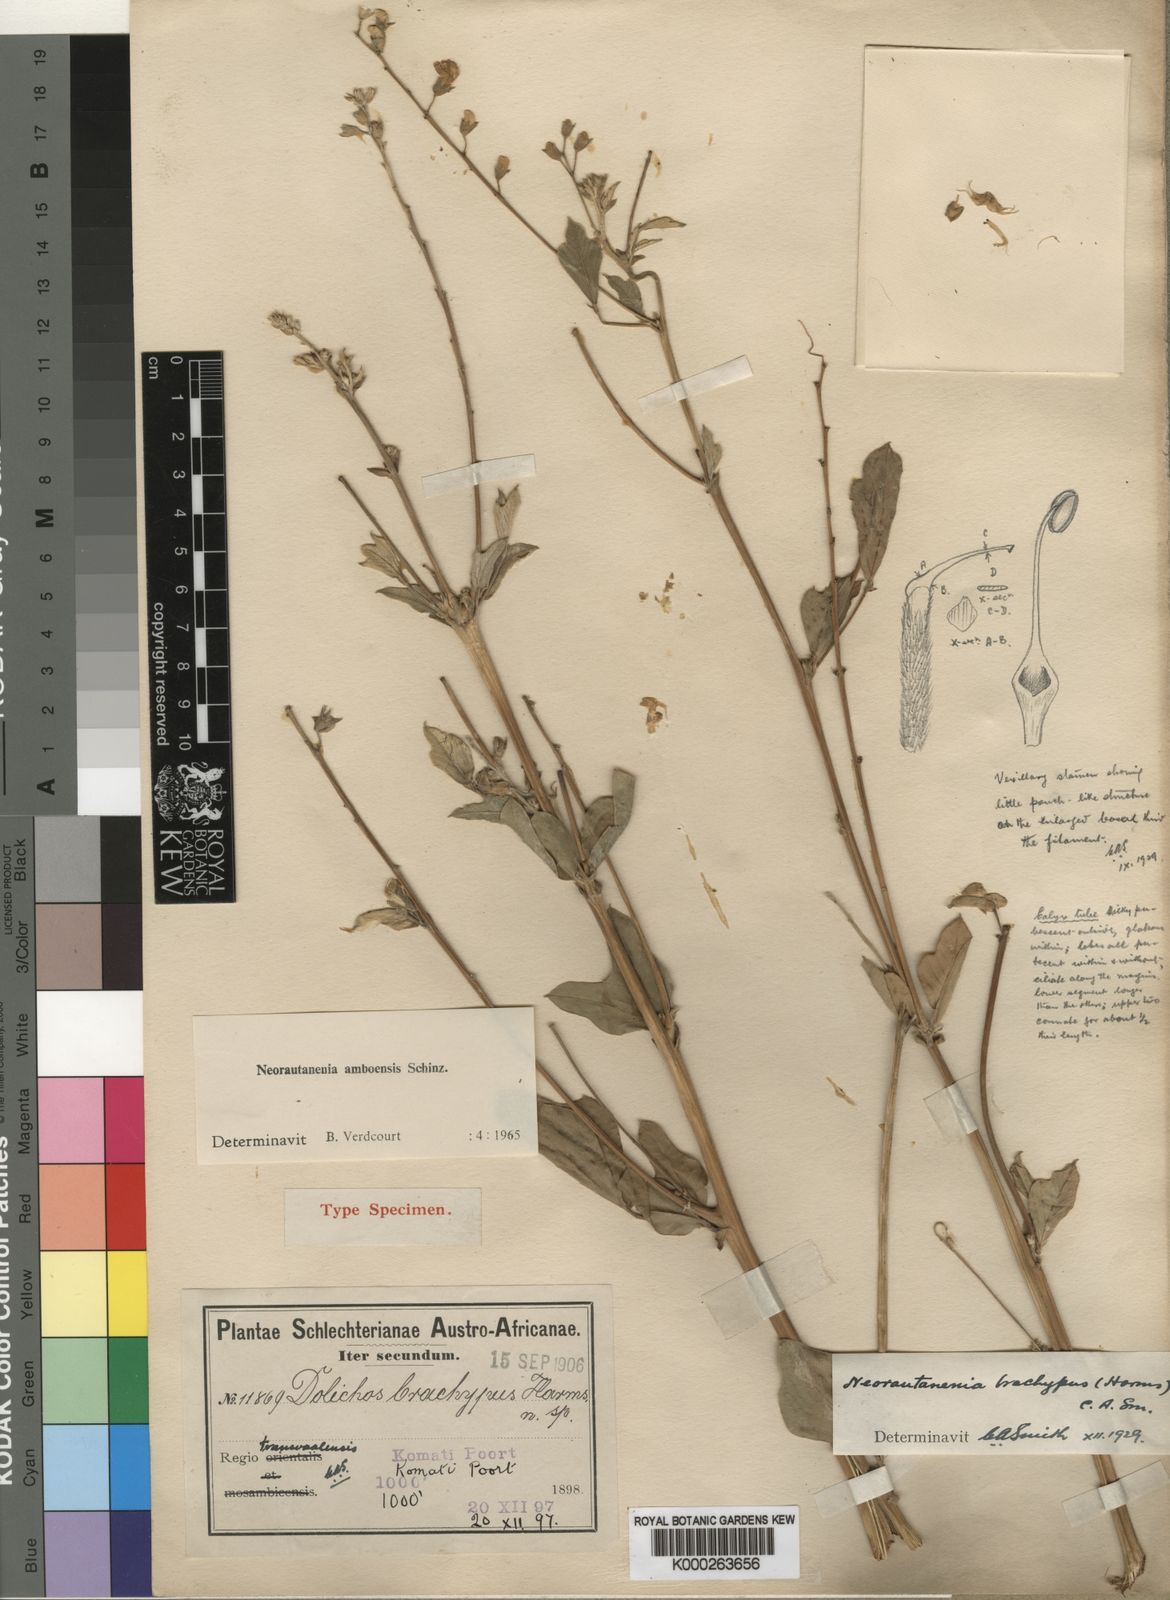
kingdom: Plantae
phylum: Tracheophyta
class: Magnoliopsida
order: Fabales
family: Fabaceae
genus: Neorautanenia
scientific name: Neorautanenia mitis
